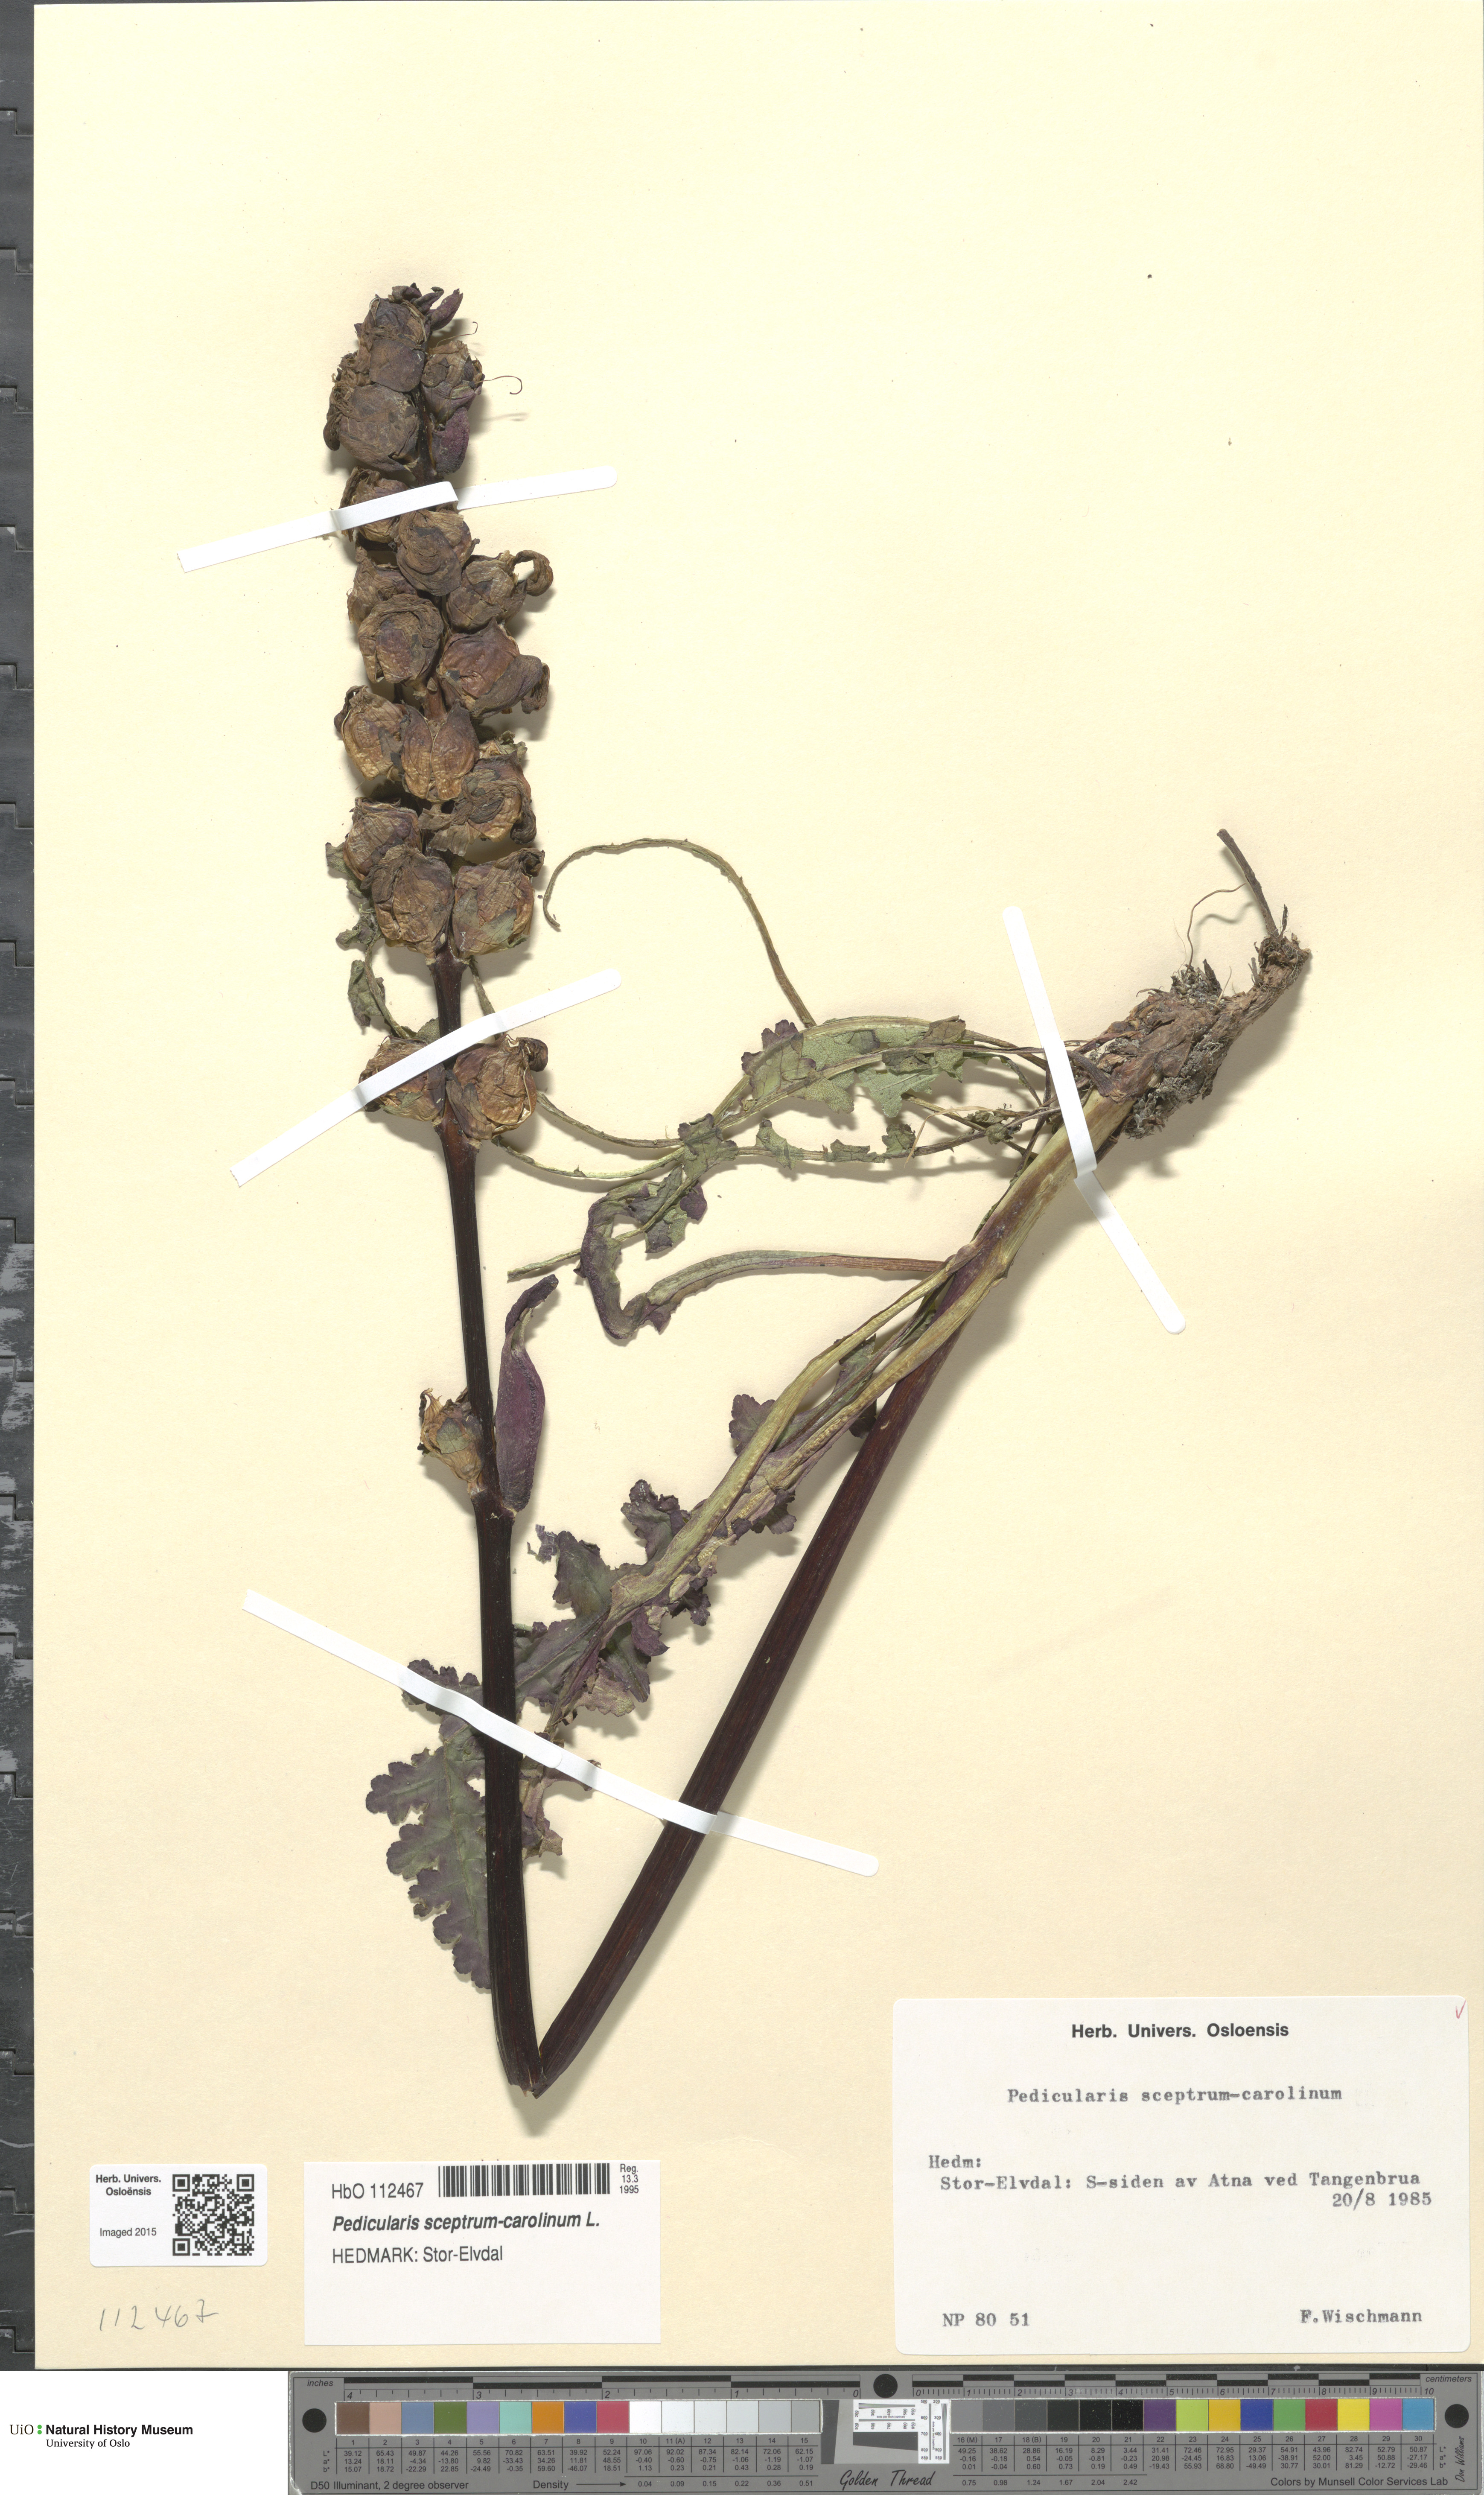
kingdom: Plantae
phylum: Tracheophyta
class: Magnoliopsida
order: Lamiales
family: Orobanchaceae
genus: Pedicularis
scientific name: Pedicularis sceptrum-carolinum
